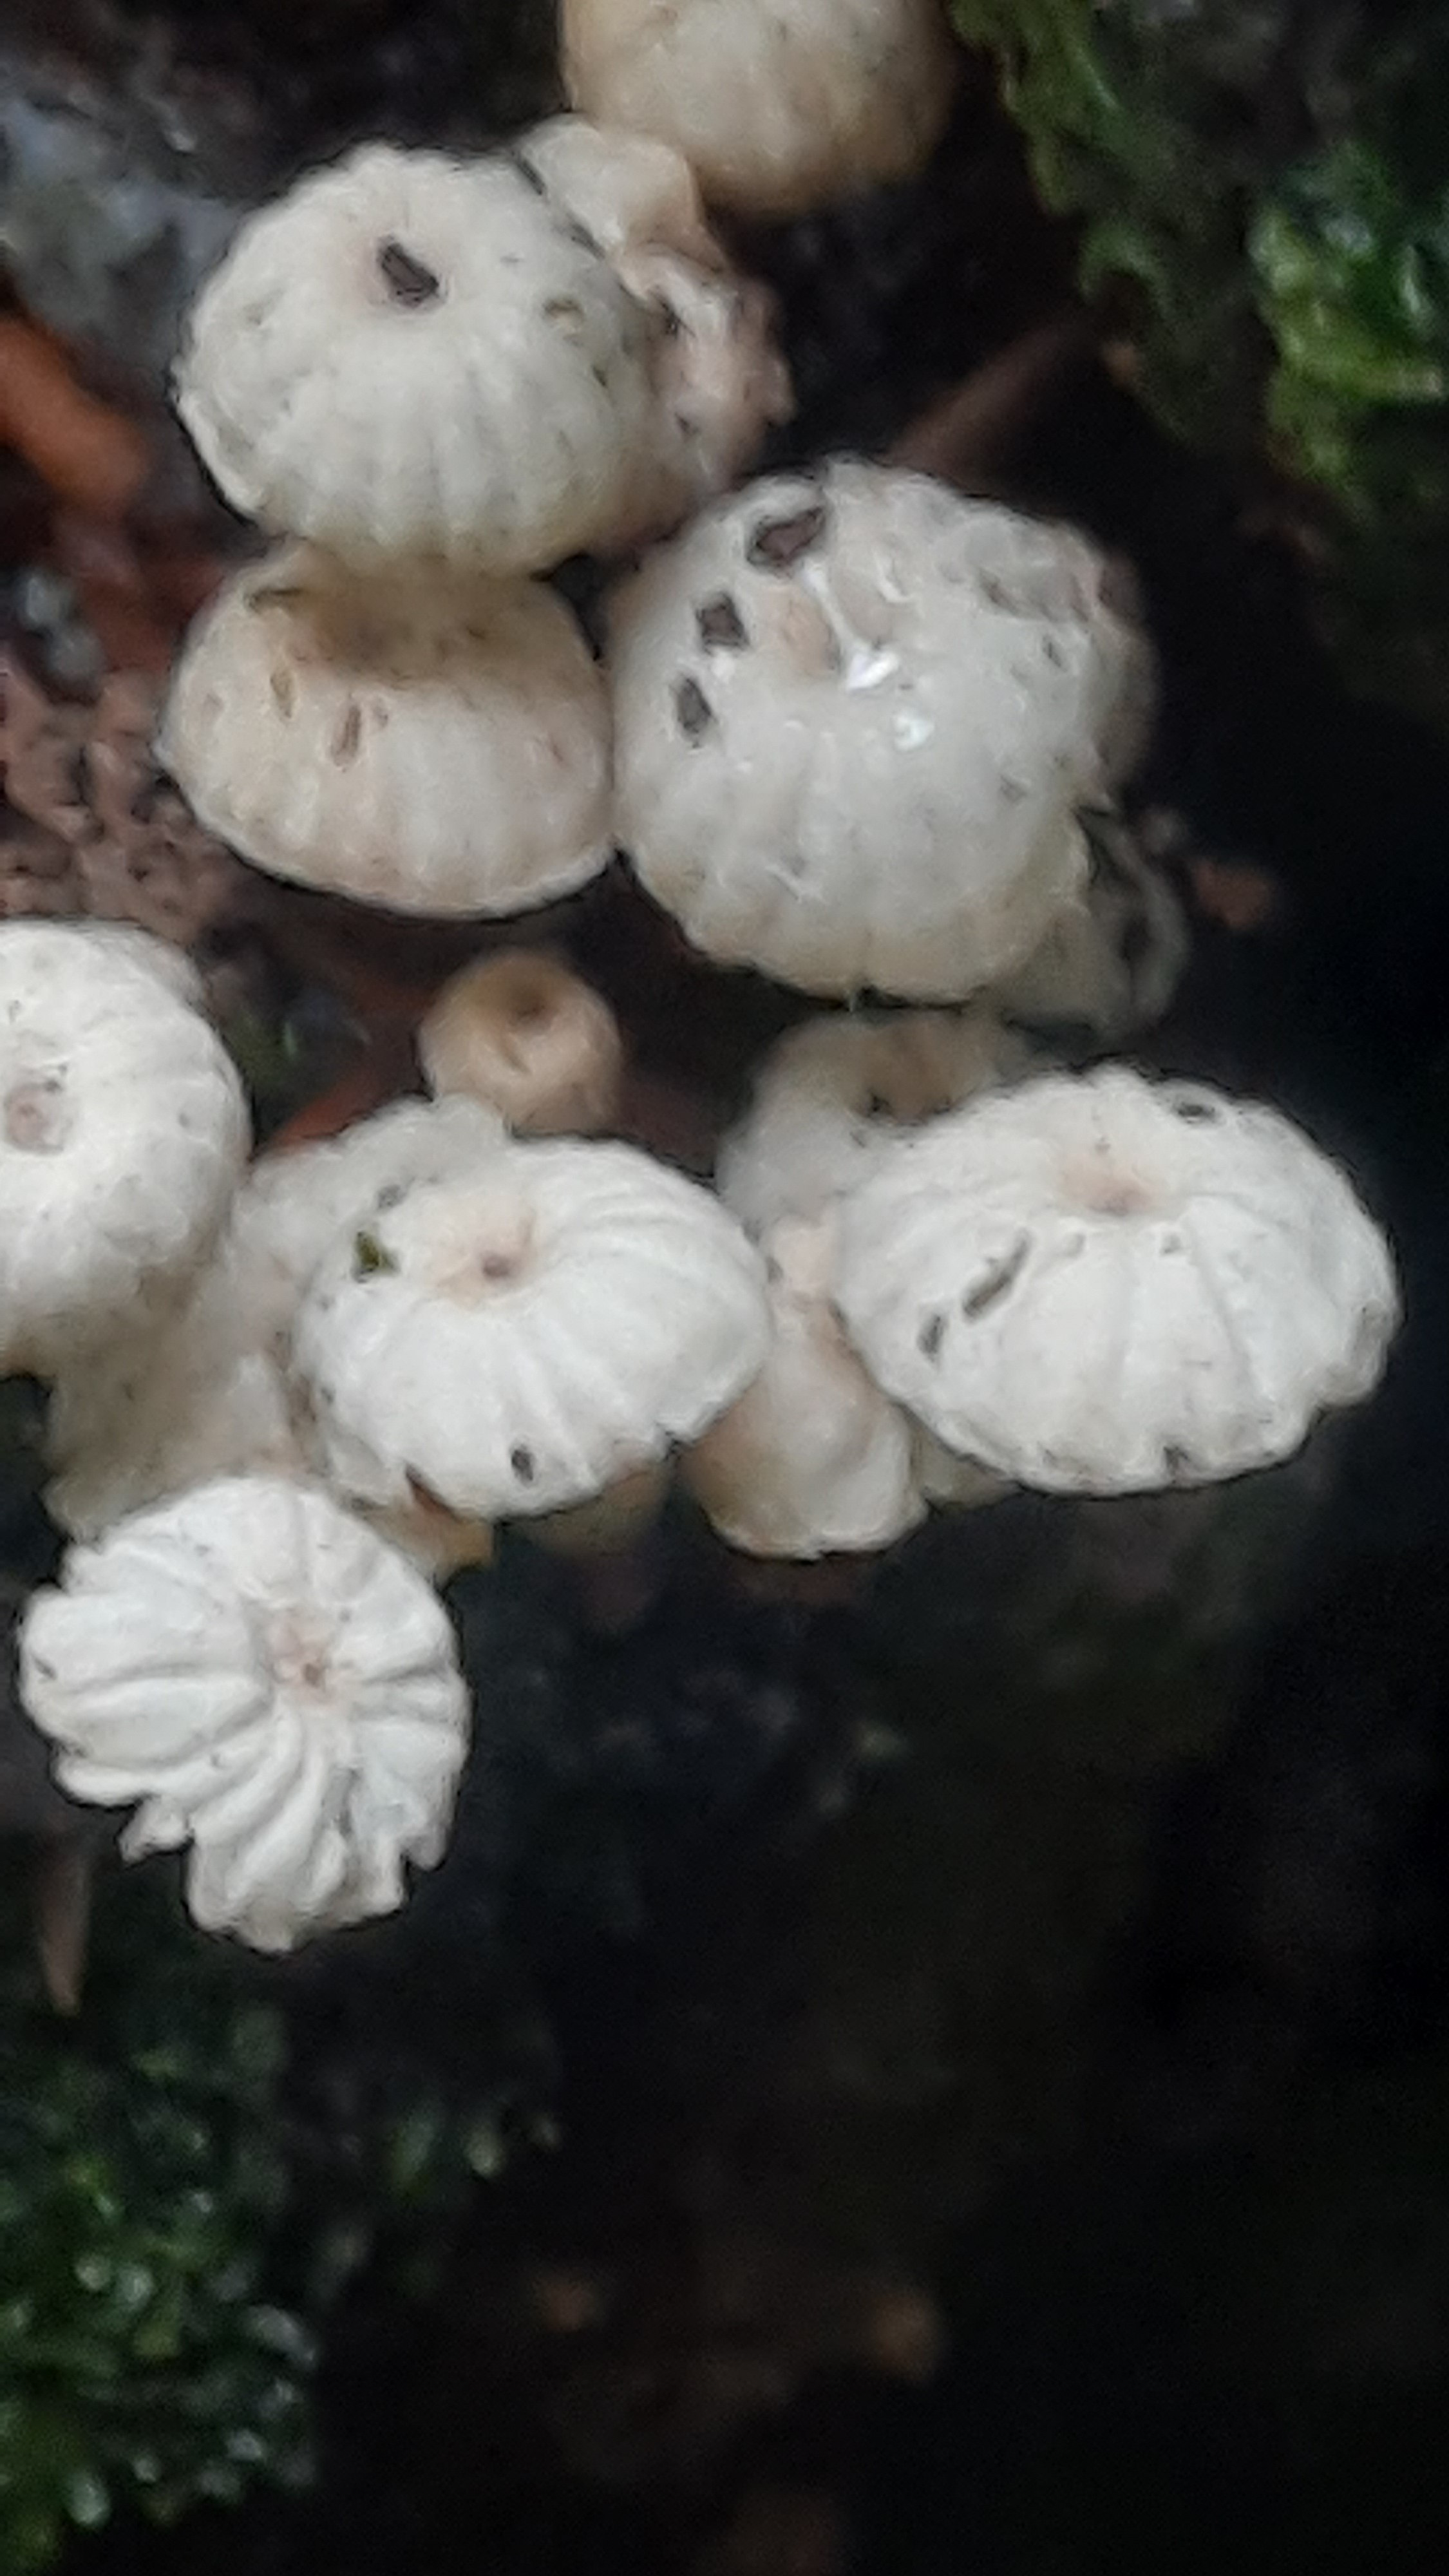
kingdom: Fungi
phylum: Basidiomycota
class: Agaricomycetes
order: Agaricales
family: Marasmiaceae
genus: Marasmius
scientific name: Marasmius rotula
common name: hjul-bruskhat
